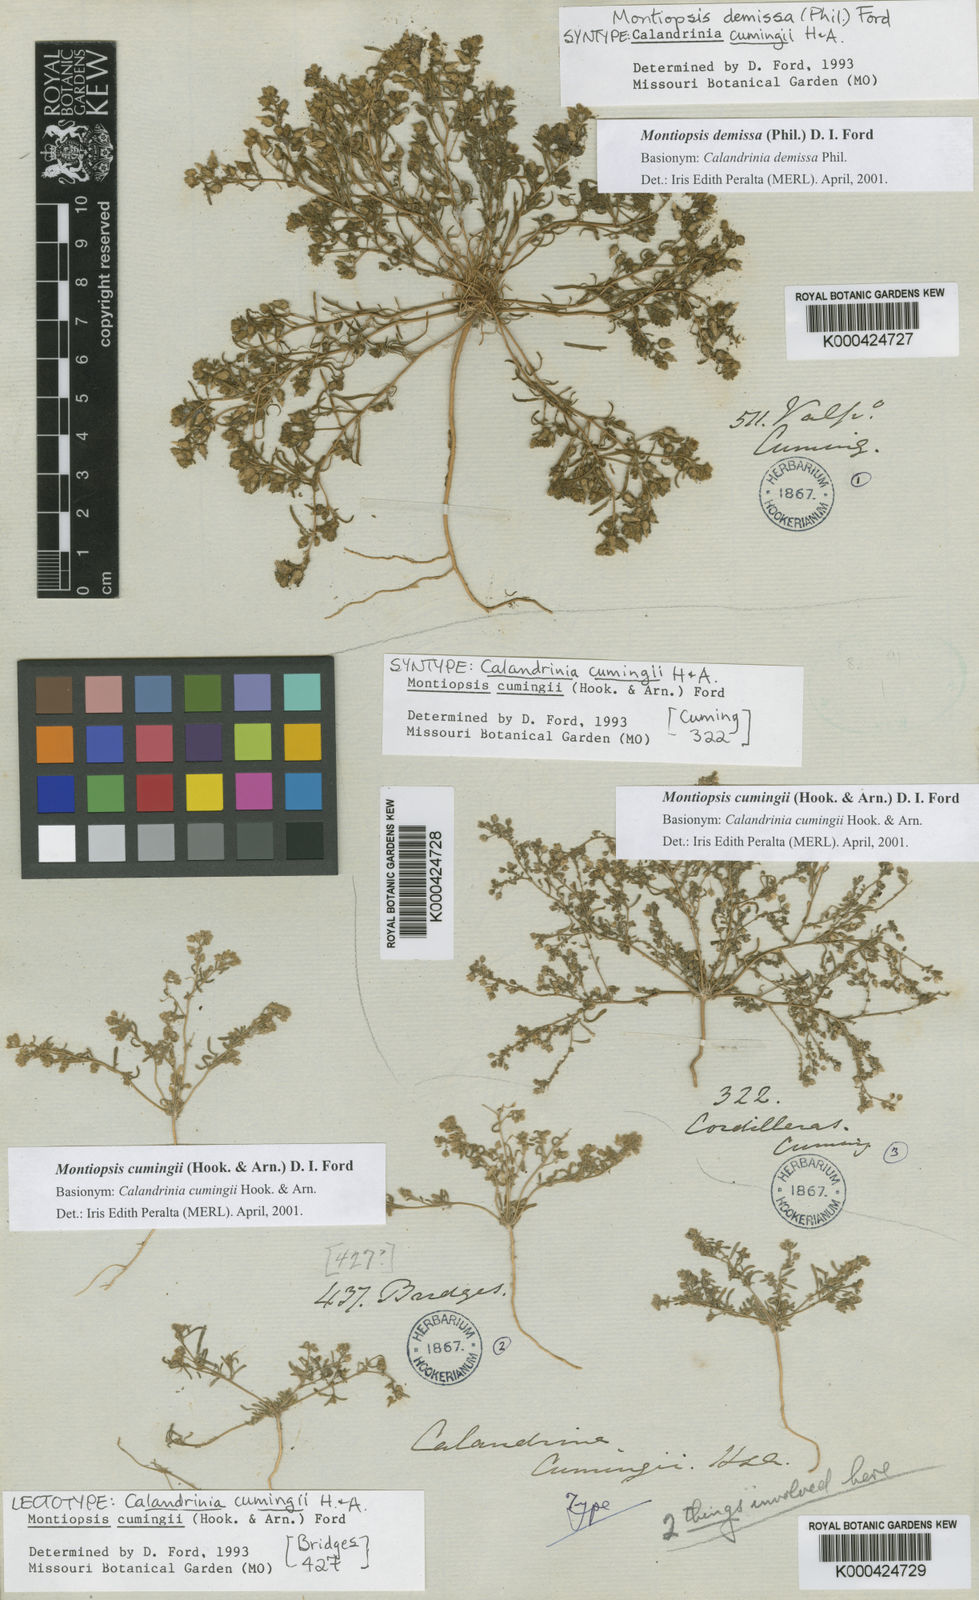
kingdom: Plantae
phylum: Tracheophyta
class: Magnoliopsida
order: Caryophyllales
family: Montiaceae
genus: Montiopsis
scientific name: Montiopsis cumingii
